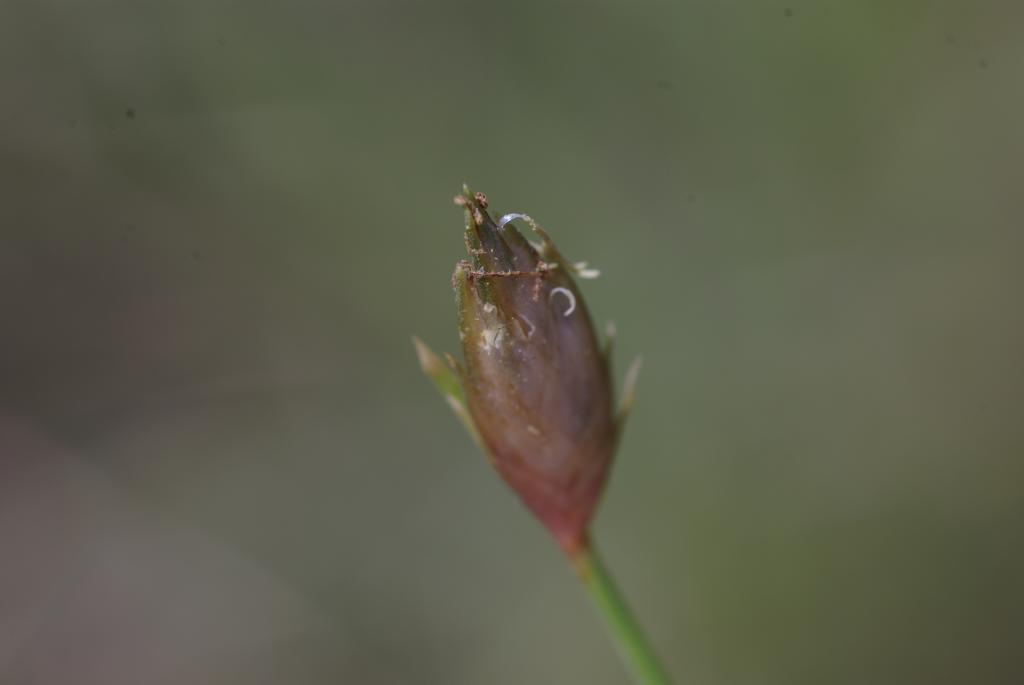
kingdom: Plantae
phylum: Tracheophyta
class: Liliopsida
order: Poales
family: Cyperaceae
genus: Abildgaardia
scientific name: Abildgaardia ovata
